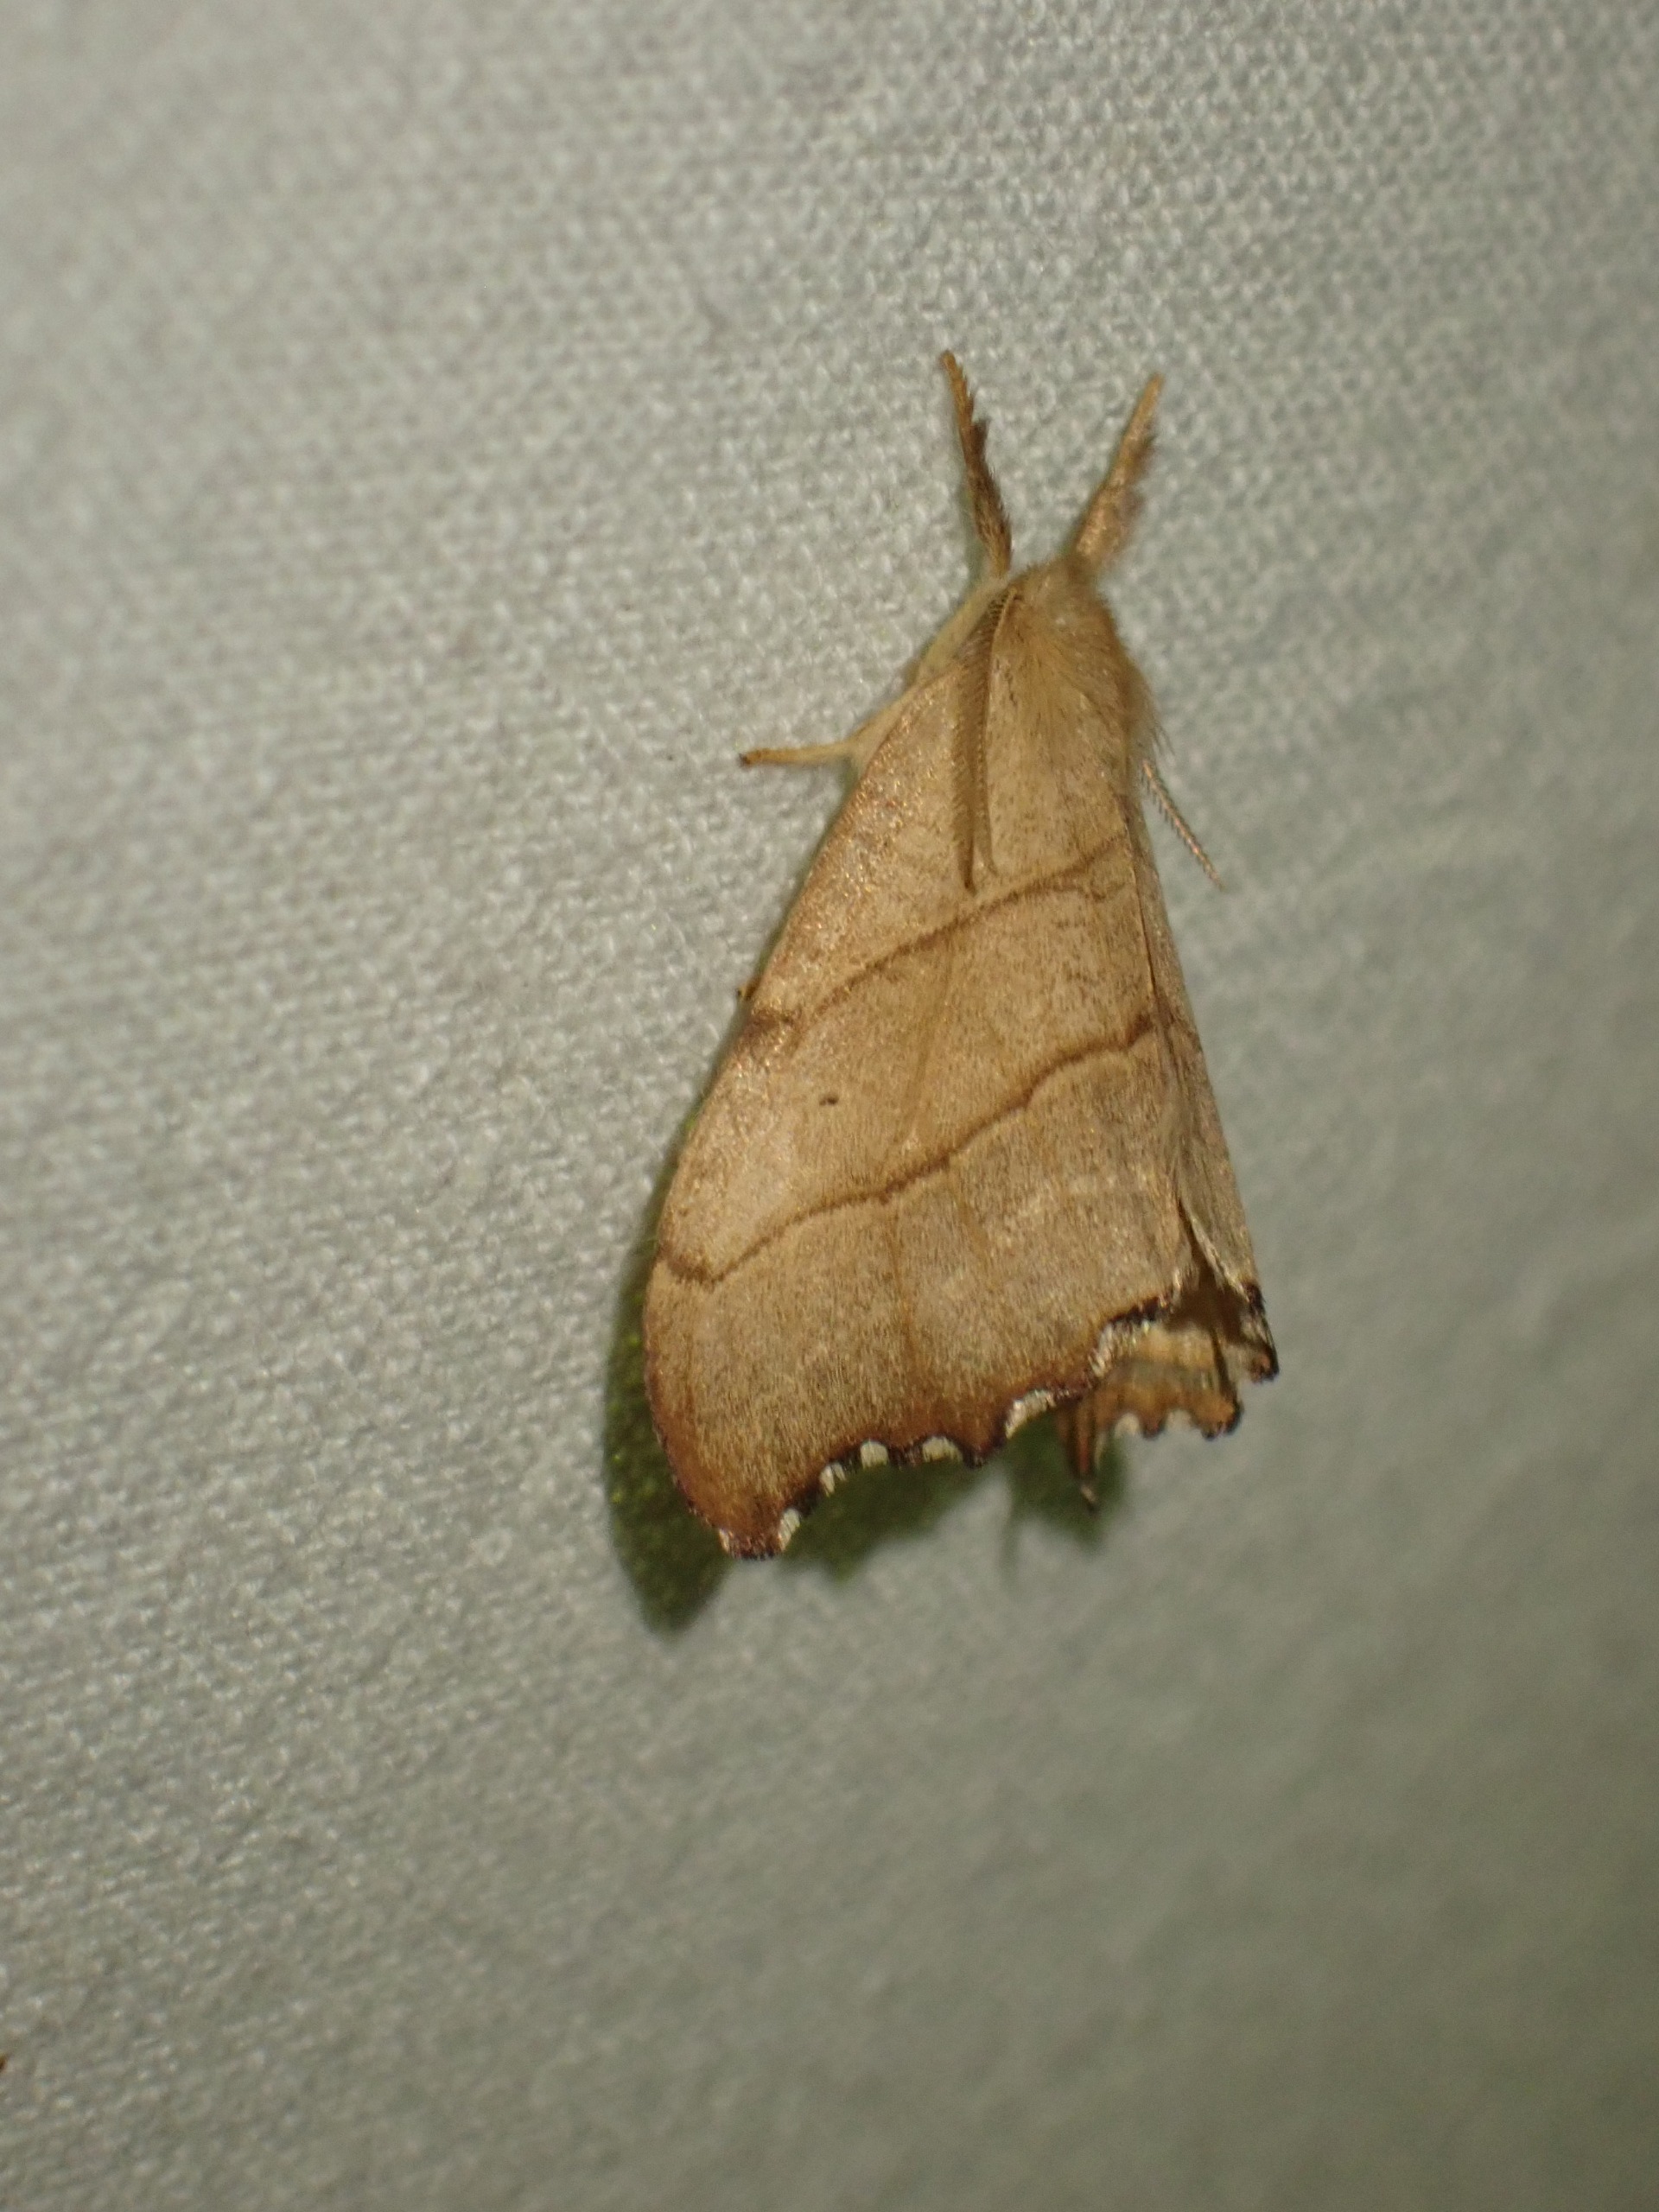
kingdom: Animalia
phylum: Arthropoda
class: Insecta
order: Lepidoptera
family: Drepanidae
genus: Falcaria
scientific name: Falcaria lacertinaria
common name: Tandet seglvinge
